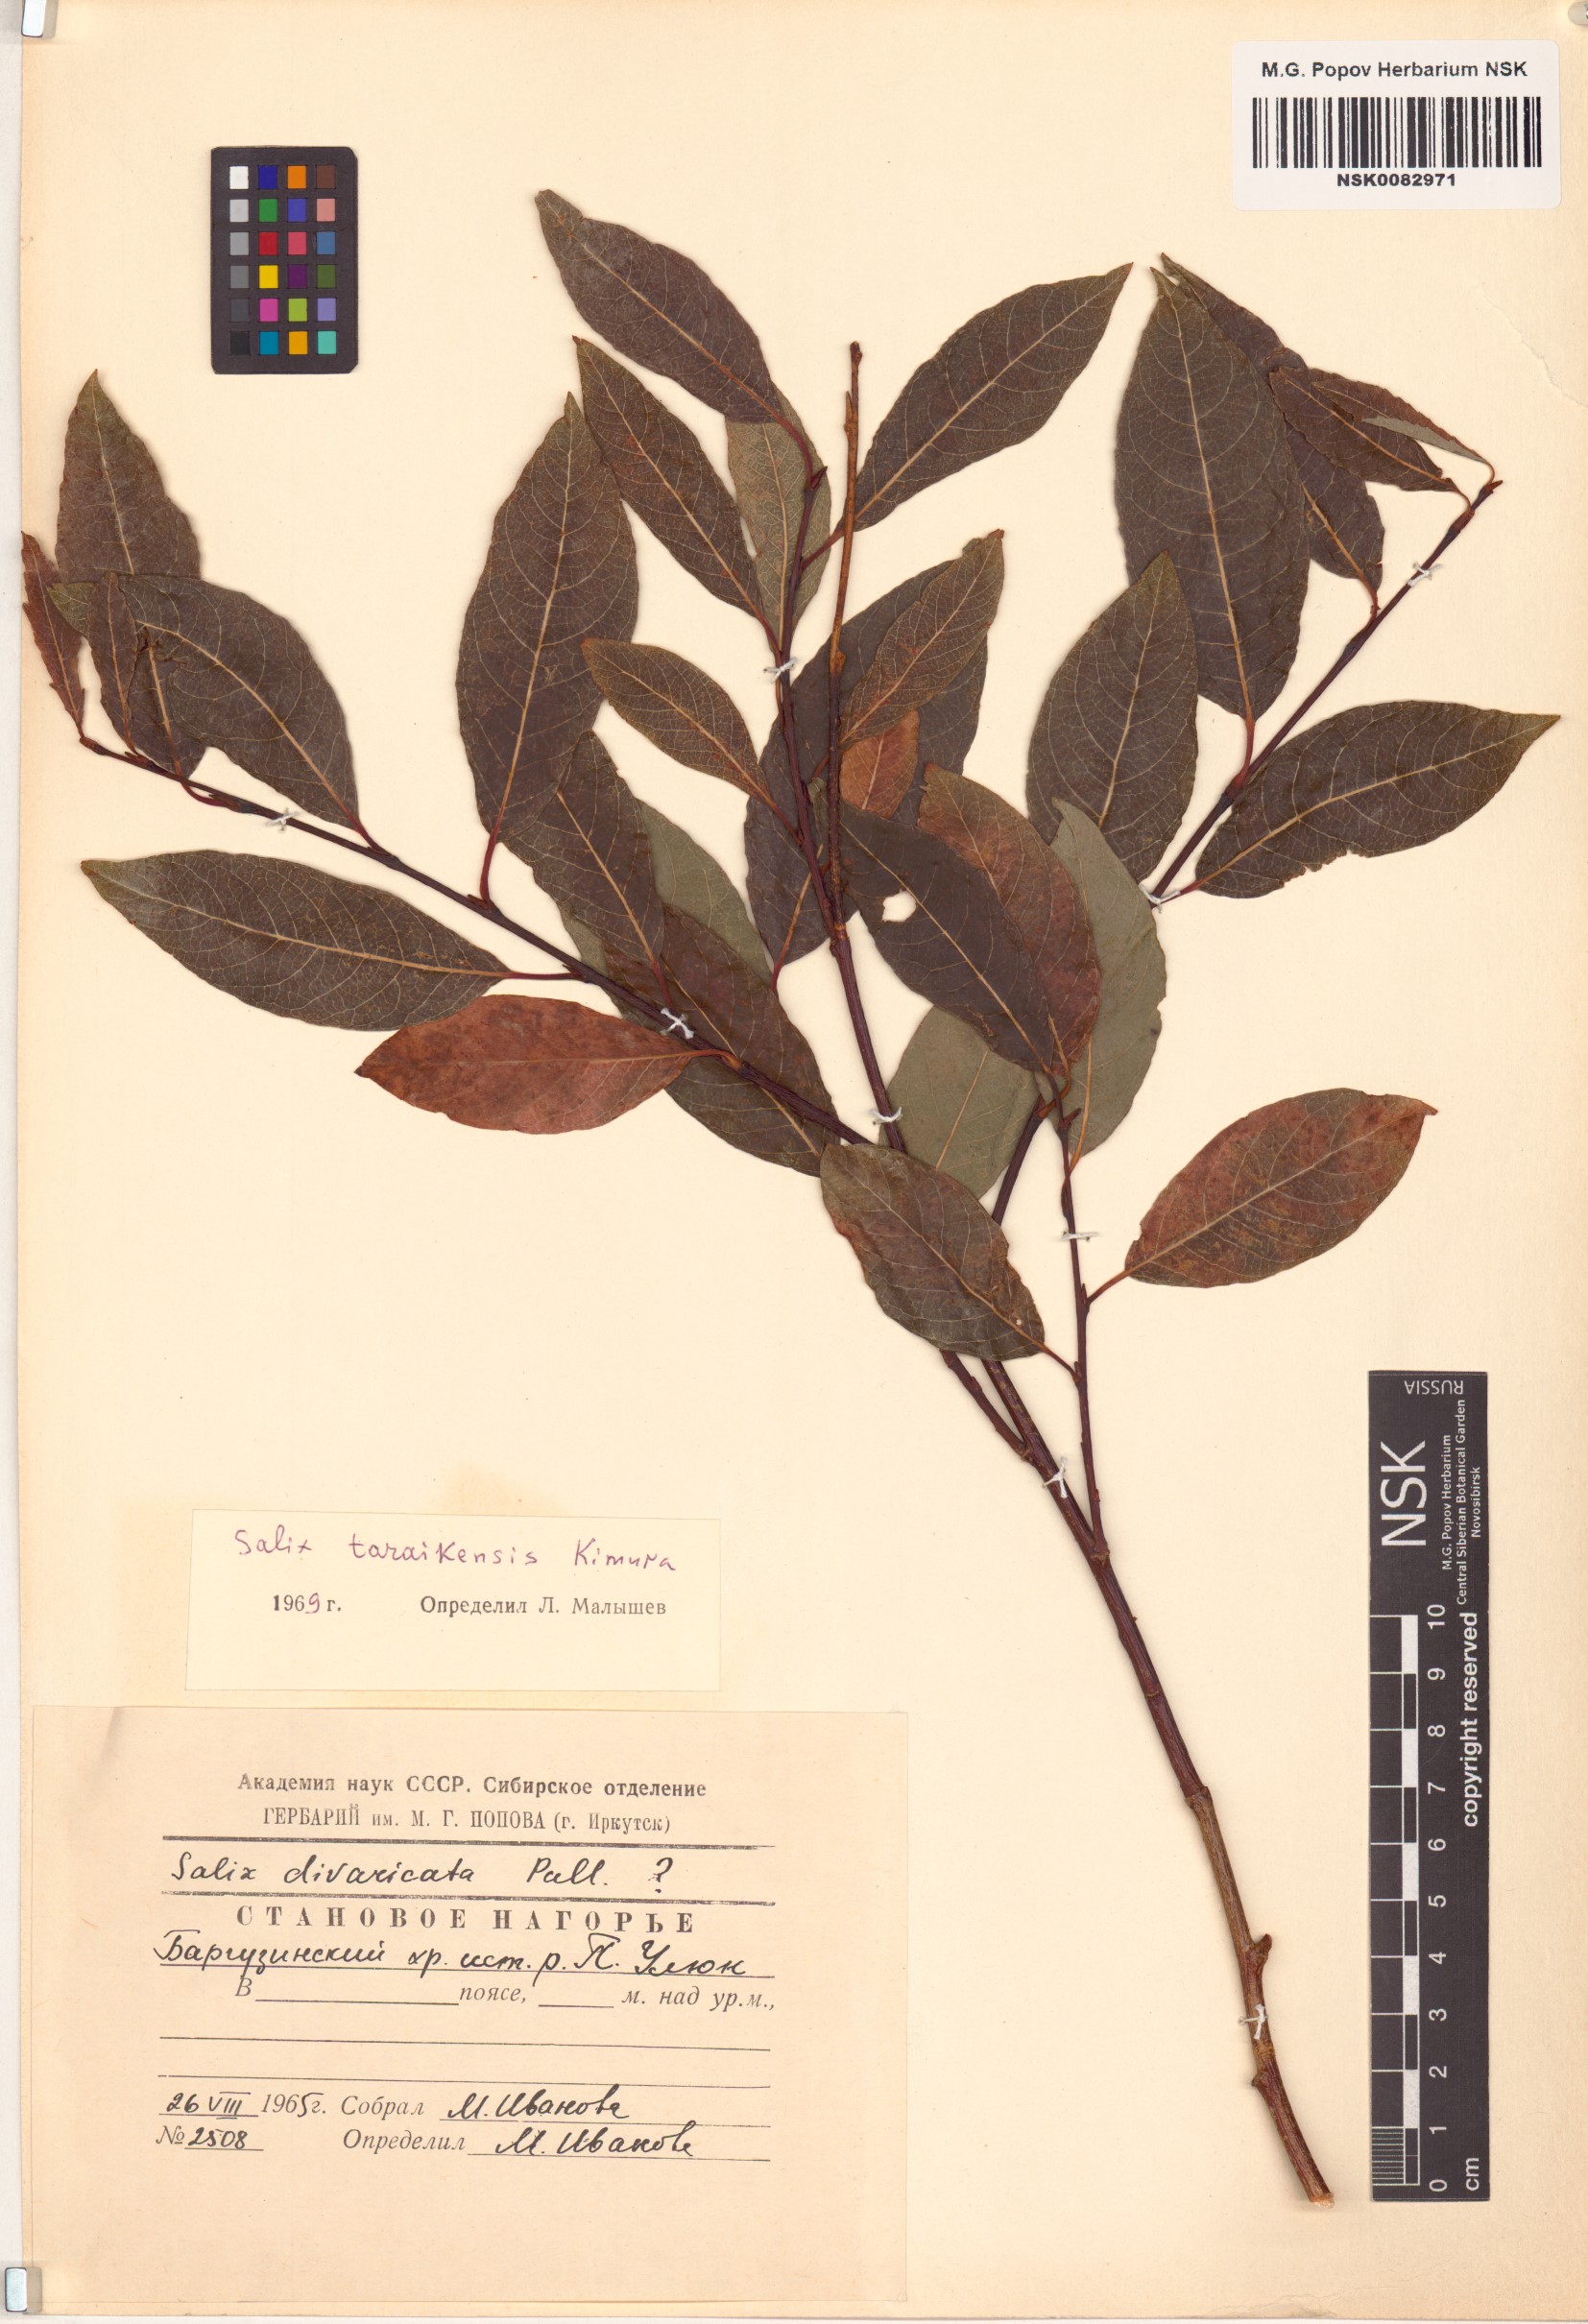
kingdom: Plantae
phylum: Tracheophyta
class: Magnoliopsida
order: Malpighiales
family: Salicaceae
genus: Salix
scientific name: Salix taraikensis
